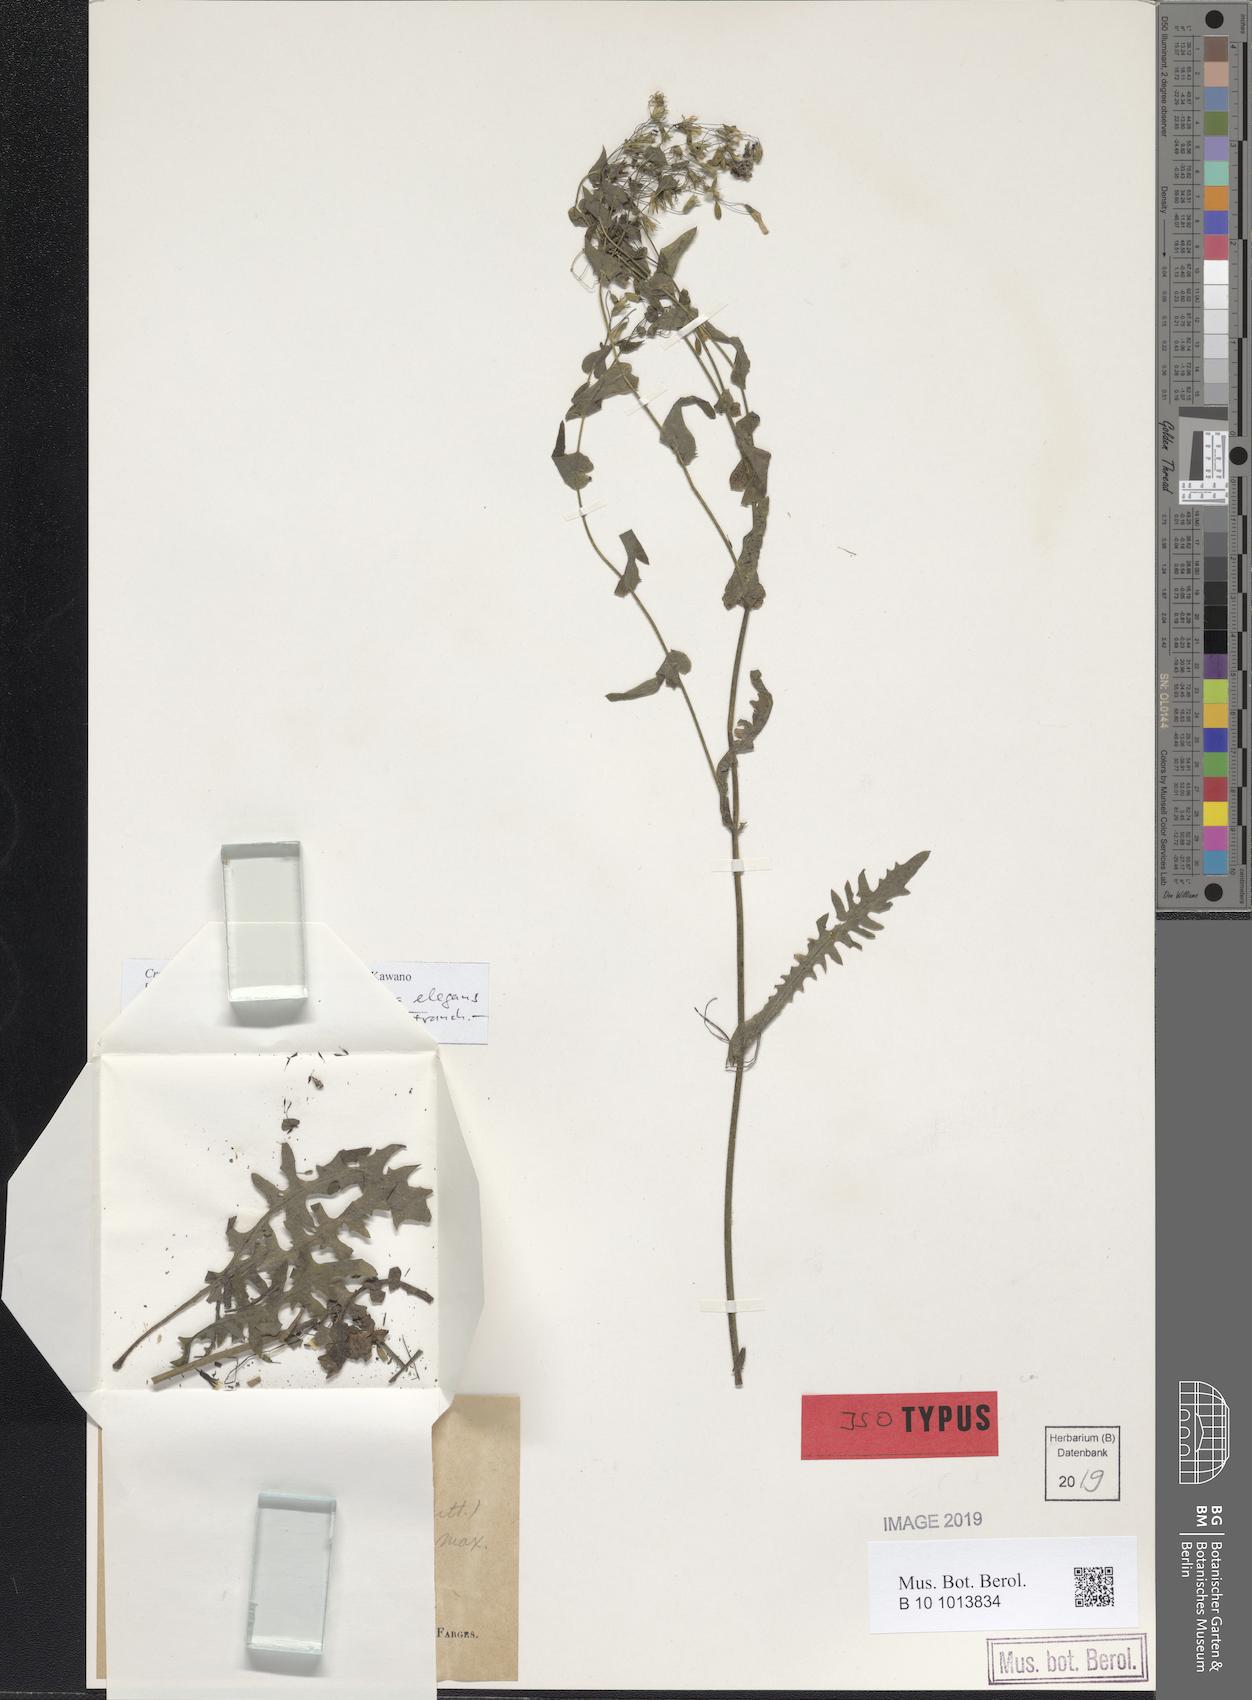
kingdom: Plantae
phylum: Tracheophyta
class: Magnoliopsida
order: Asterales
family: Asteraceae
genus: Crepidiastrum
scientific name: Crepidiastrum sonchifolium
